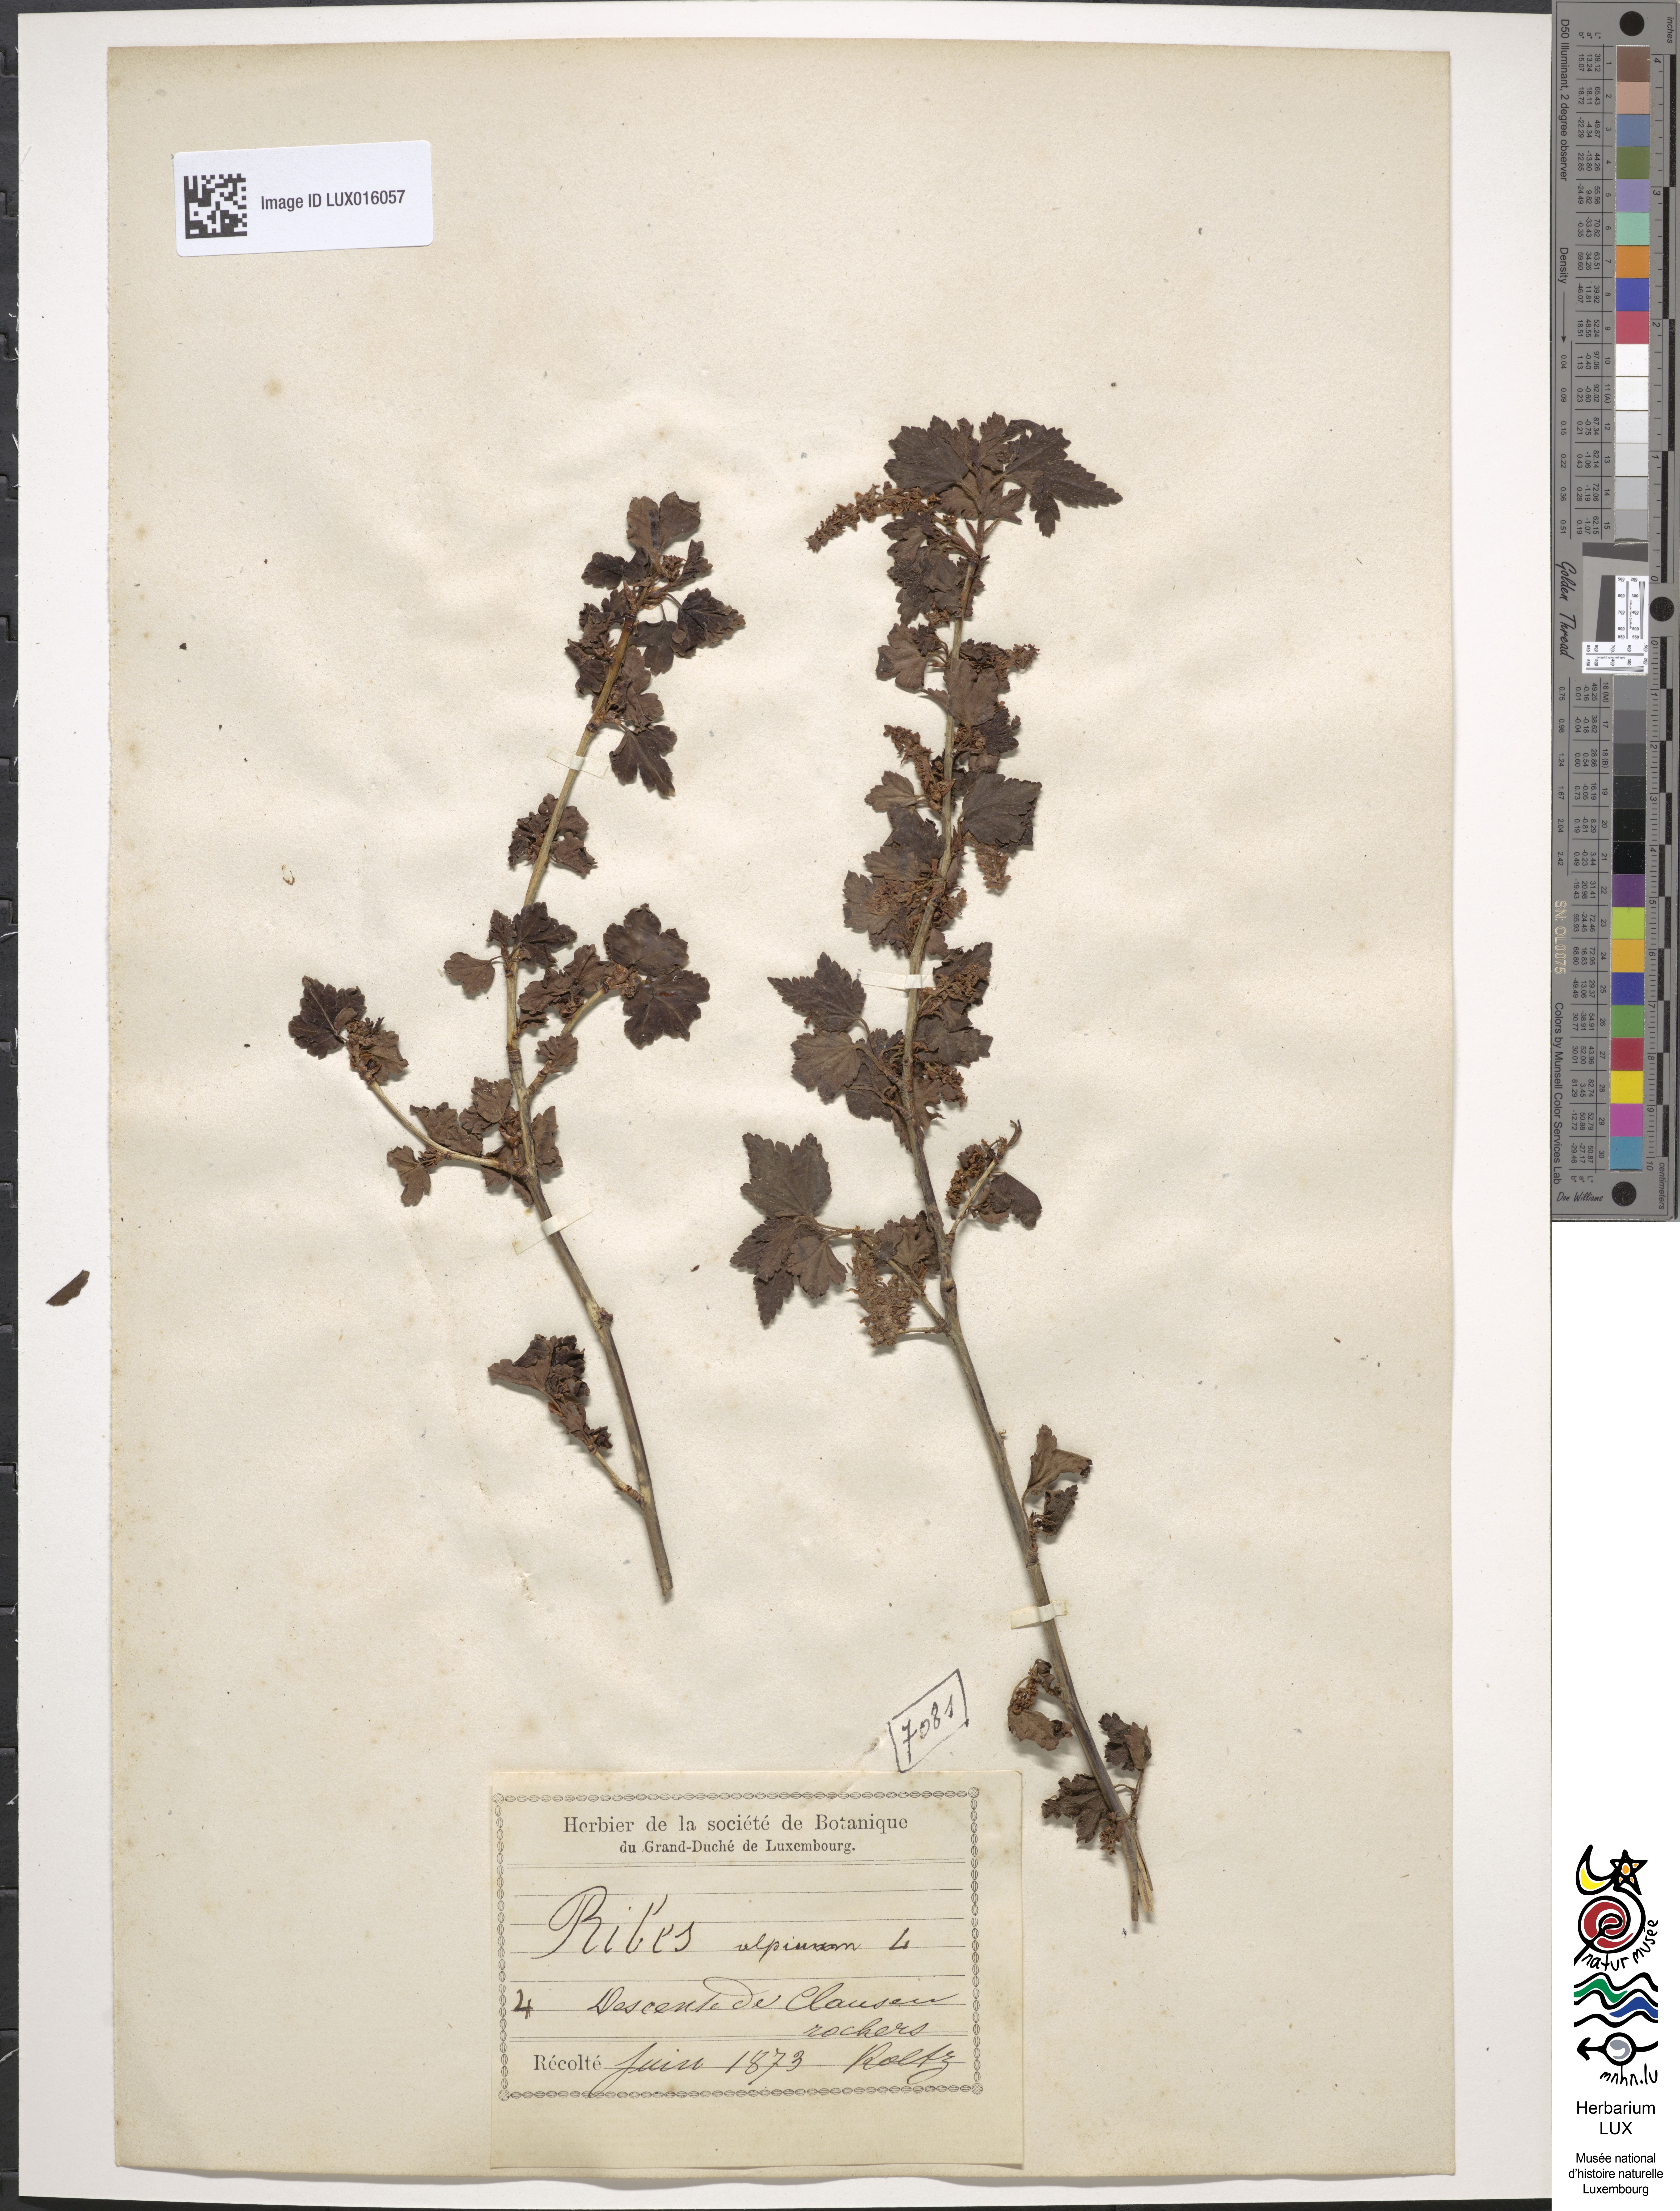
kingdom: Plantae
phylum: Tracheophyta
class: Magnoliopsida
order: Saxifragales
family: Grossulariaceae
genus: Ribes
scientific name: Ribes alpinum
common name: Alpine currant
